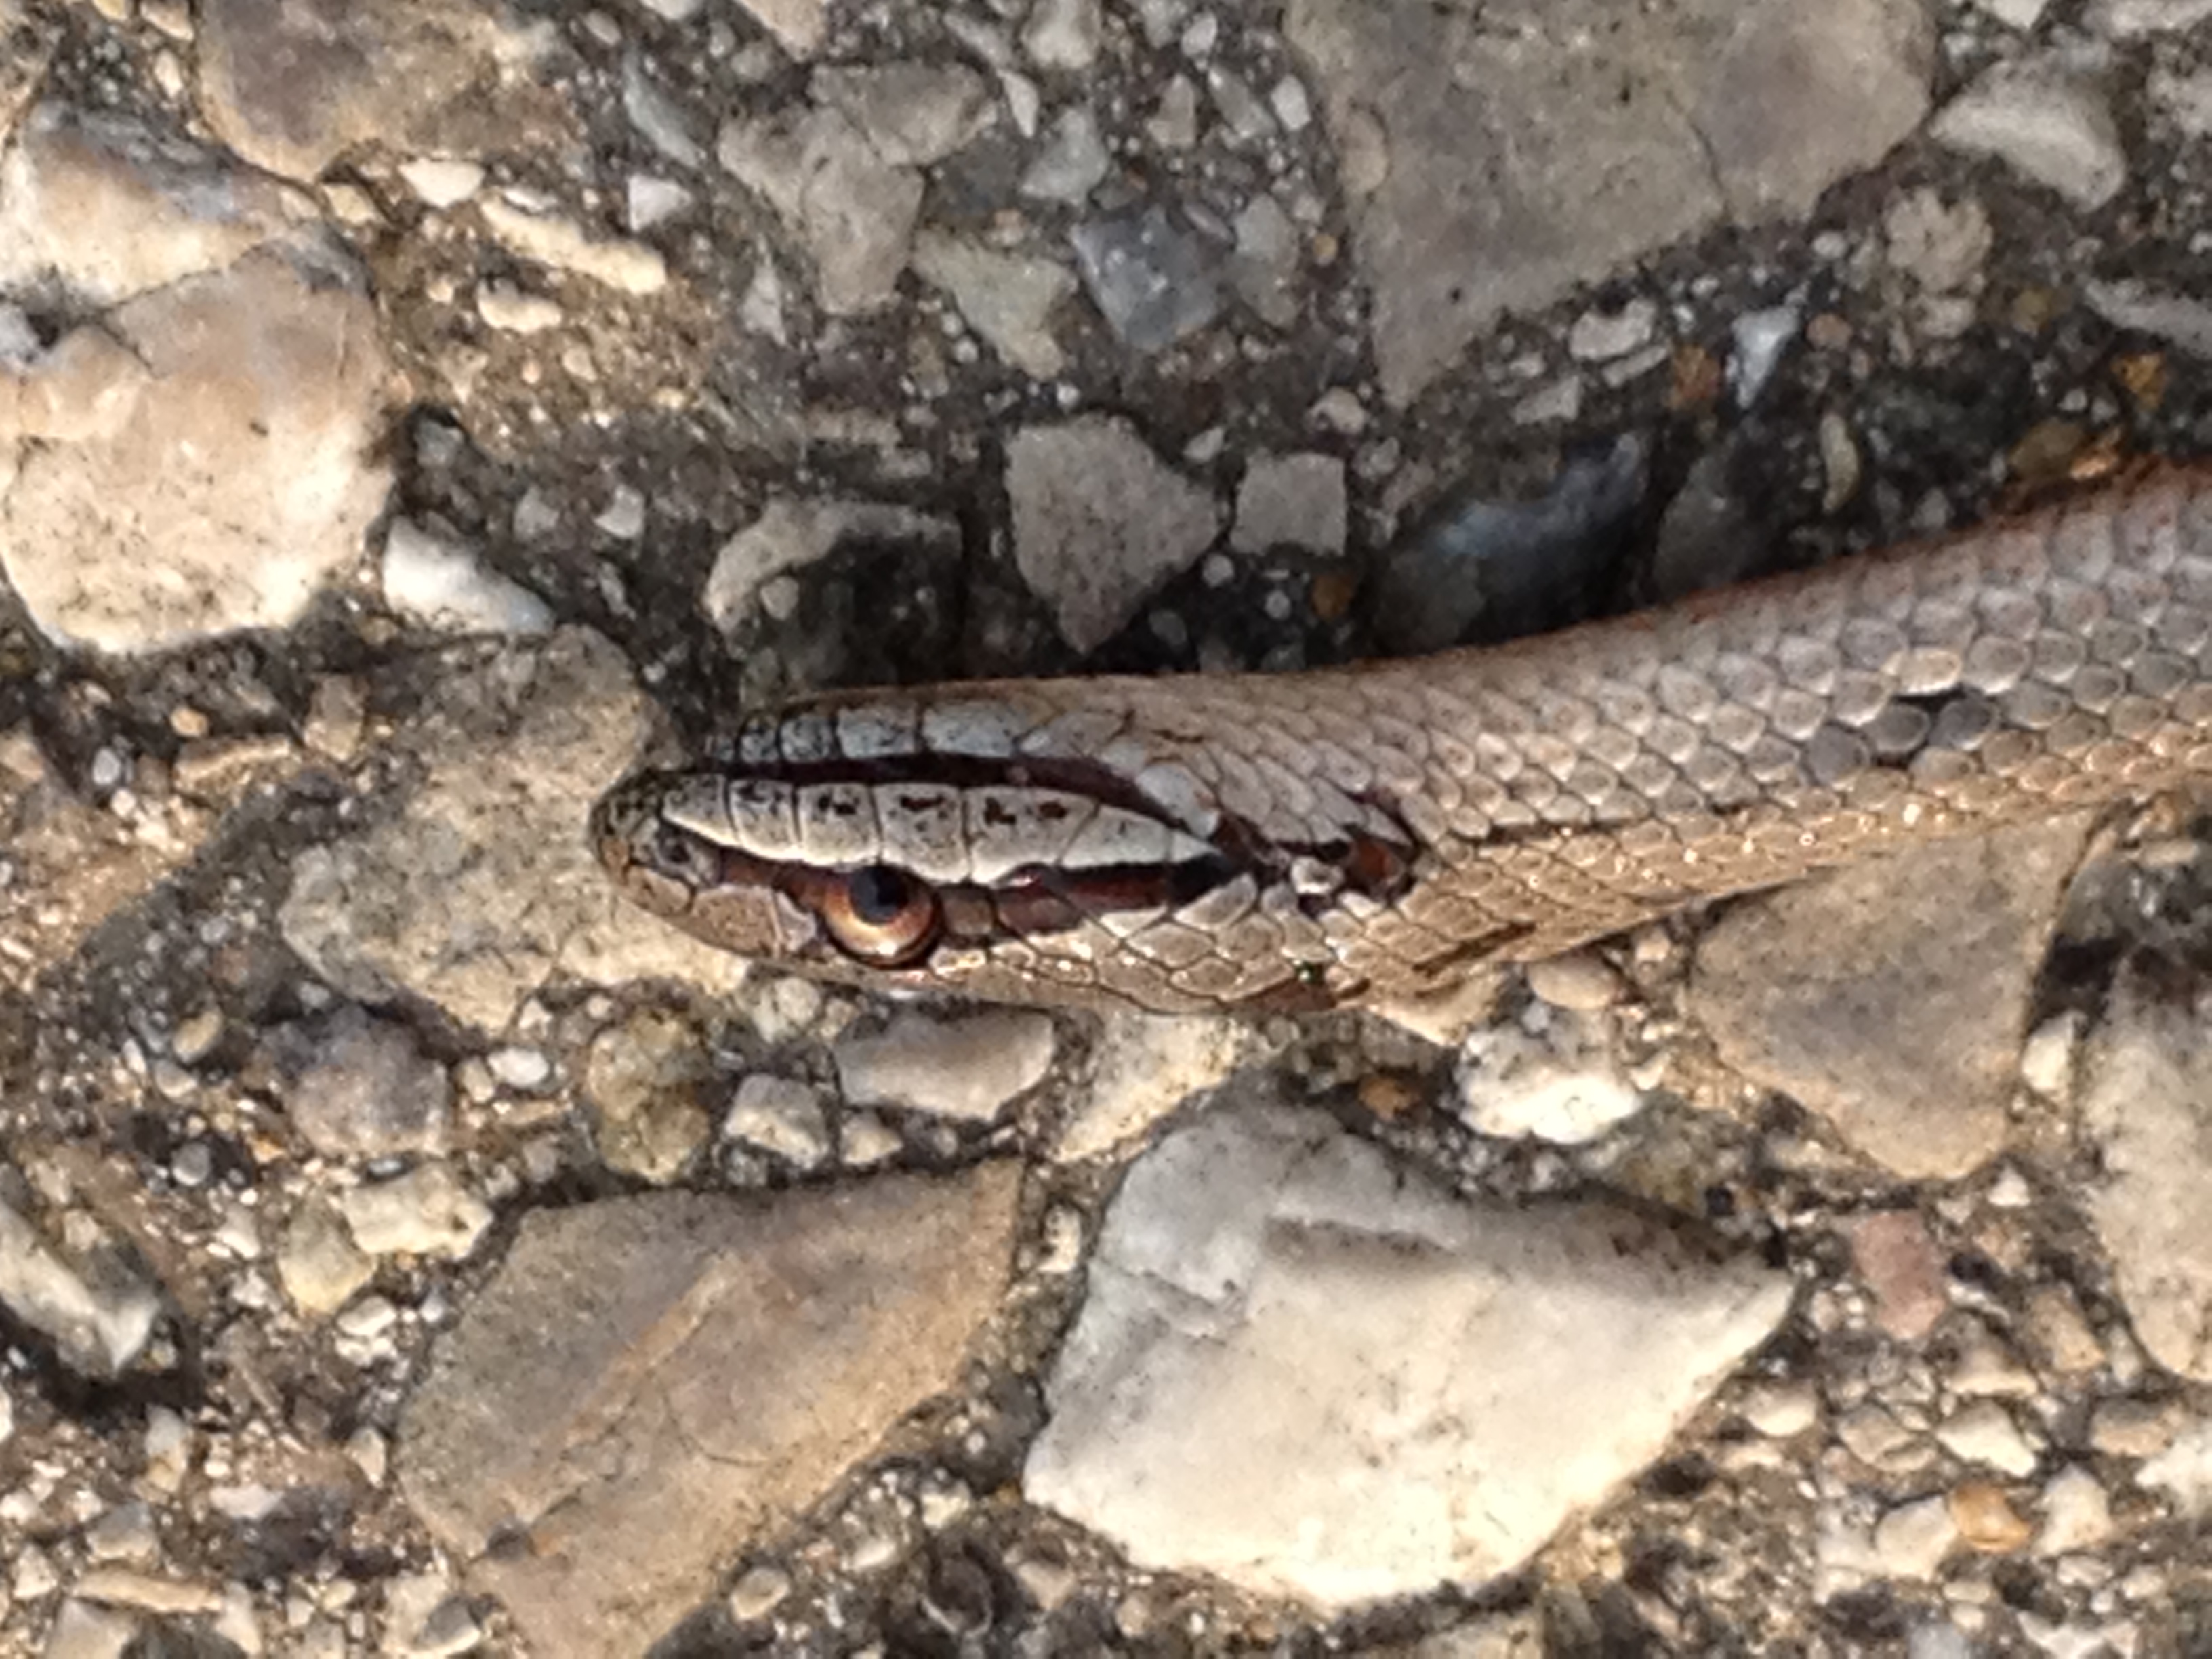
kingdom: Animalia
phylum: Chordata
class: Squamata
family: Colubridae
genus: Coronella
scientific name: Coronella austriaca
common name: Smooth snake
